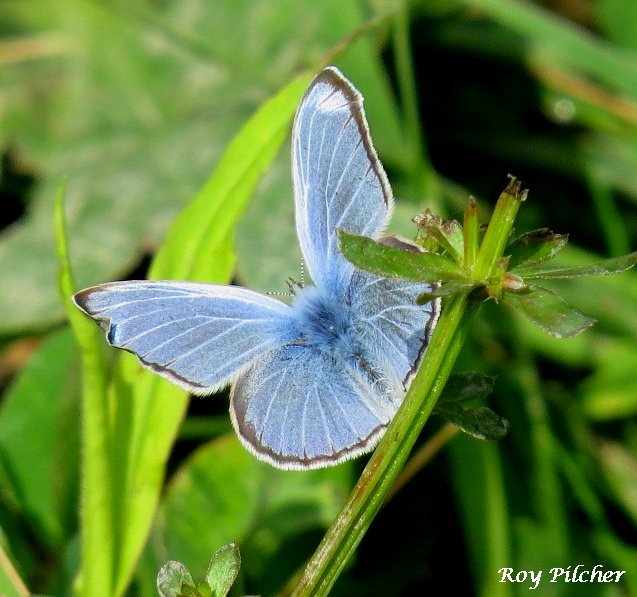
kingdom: Animalia
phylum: Arthropoda
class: Insecta
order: Lepidoptera
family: Lycaenidae
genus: Glaucopsyche
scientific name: Glaucopsyche lygdamus
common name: Silvery Blue
